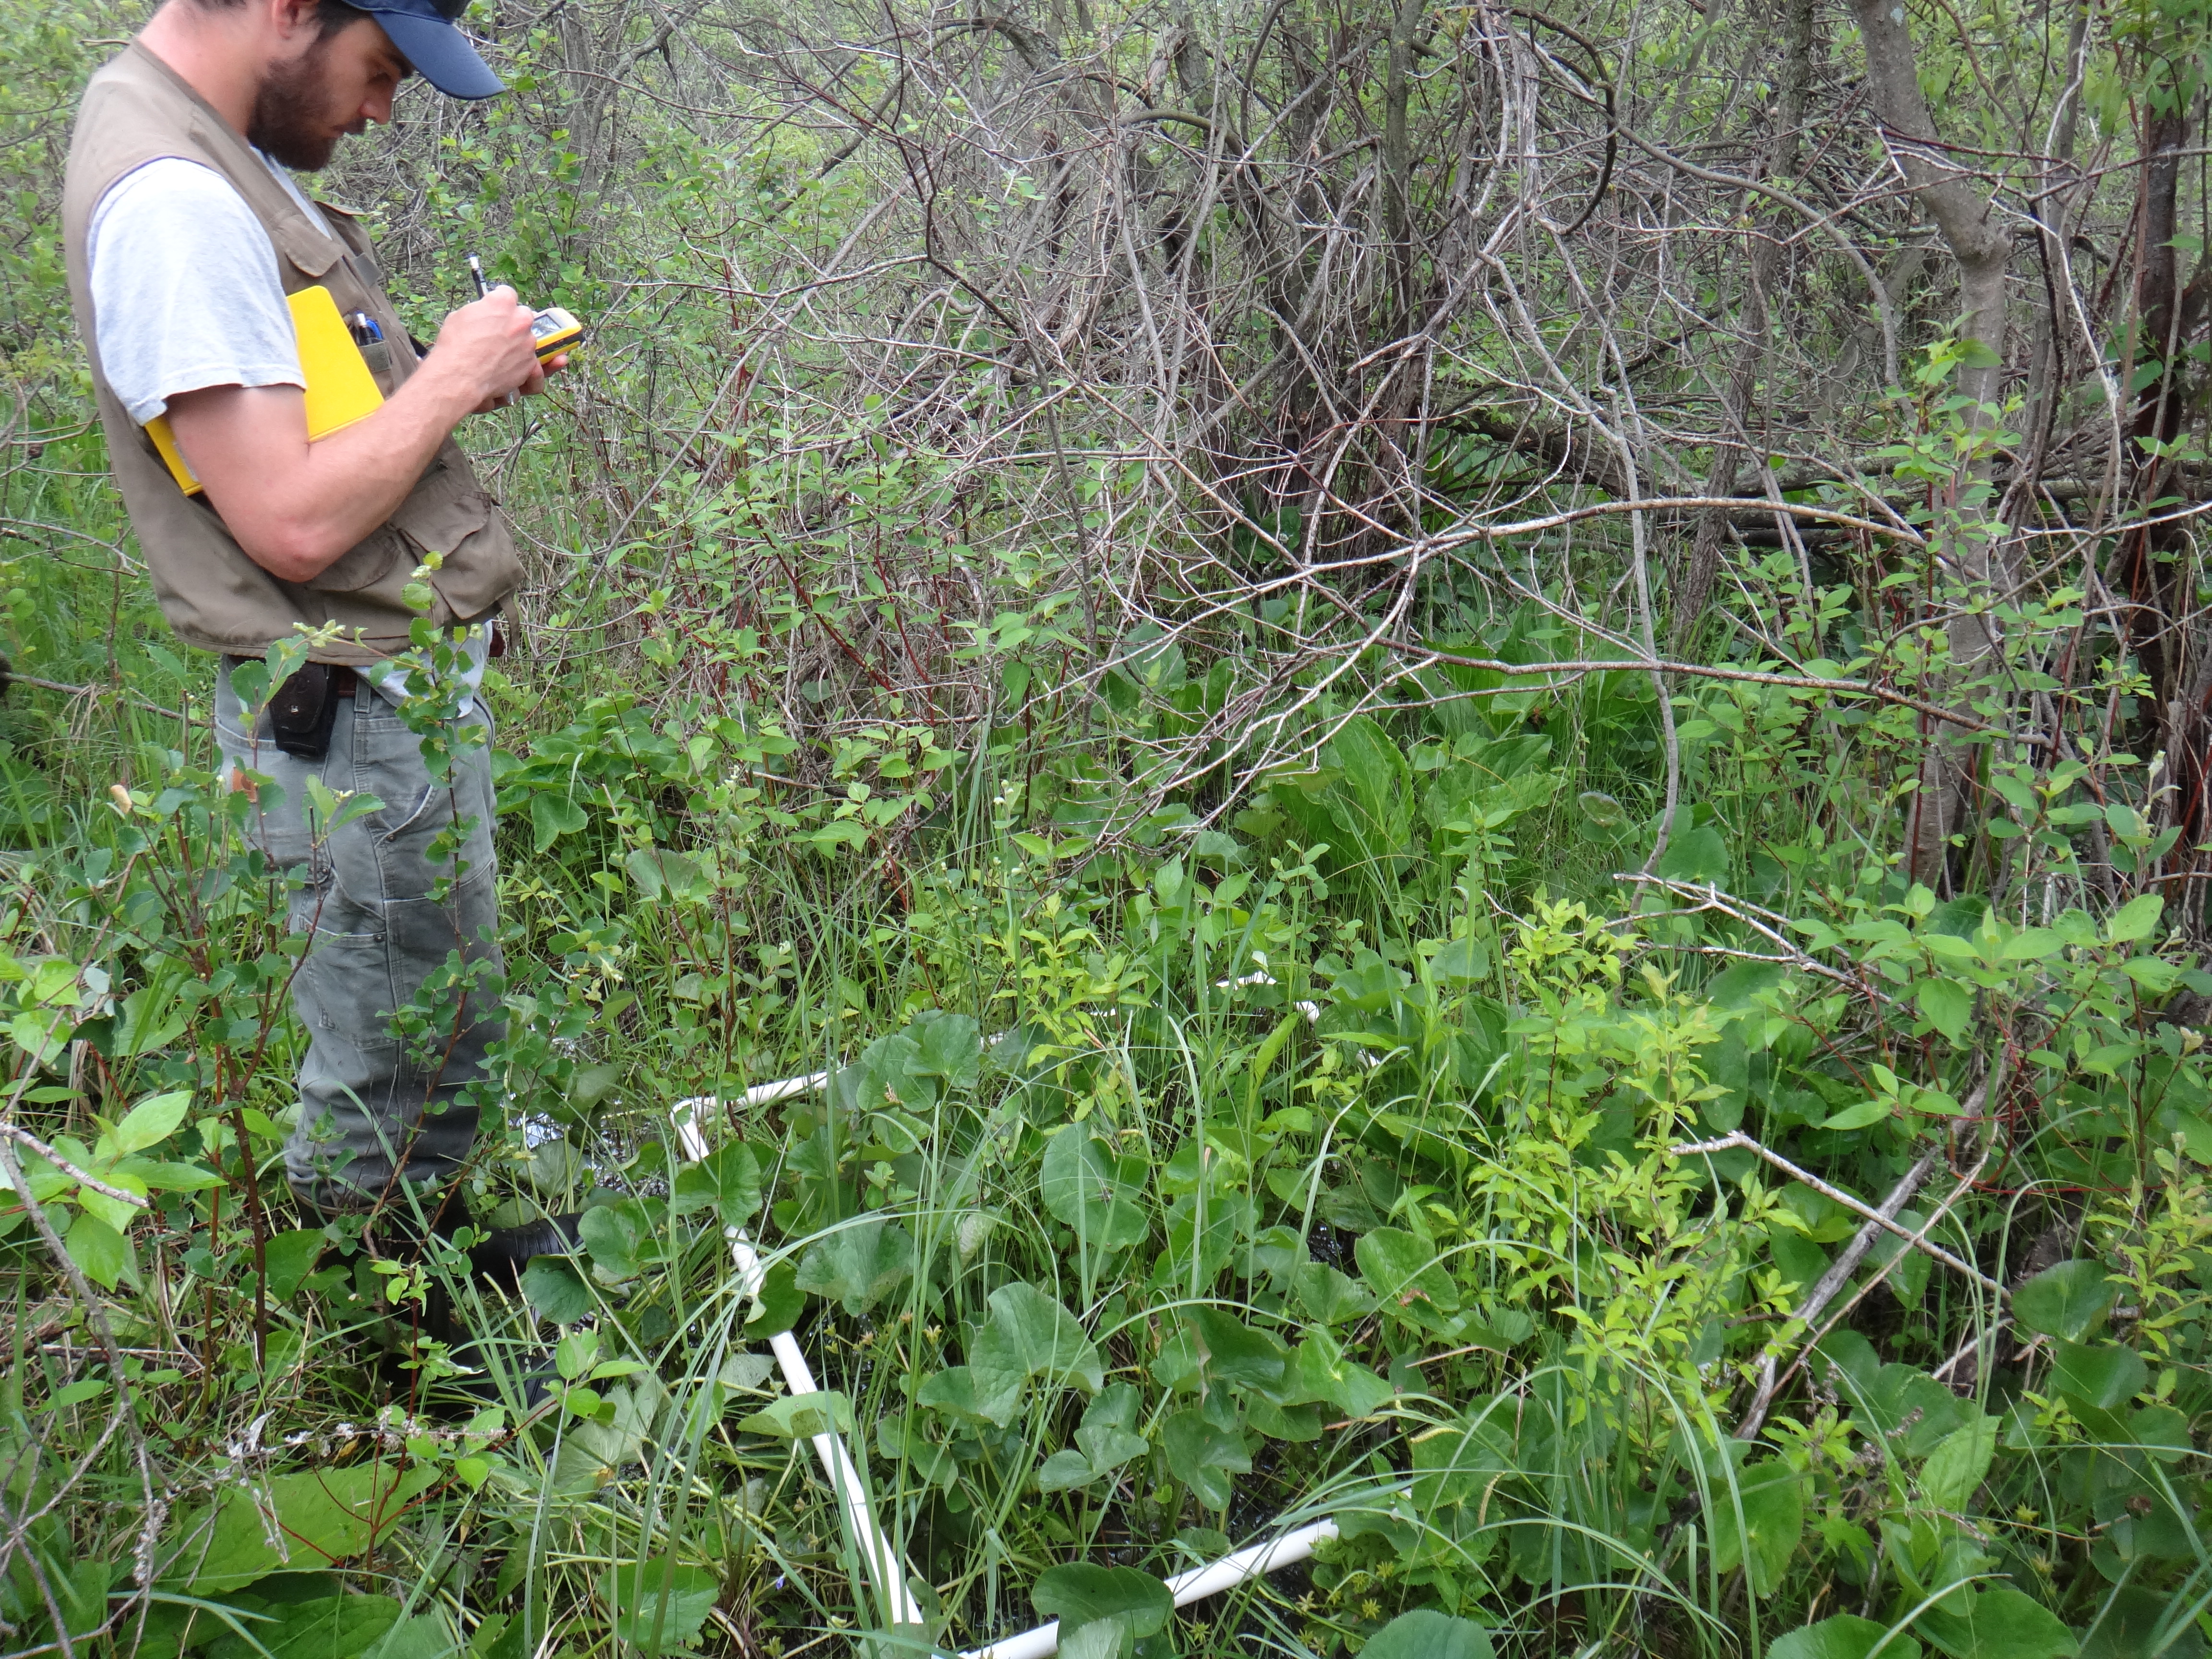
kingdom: Plantae
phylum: Tracheophyta
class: Liliopsida
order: Poales
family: Cyperaceae
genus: Carex
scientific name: Carex aquatilis
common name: Water sedge
